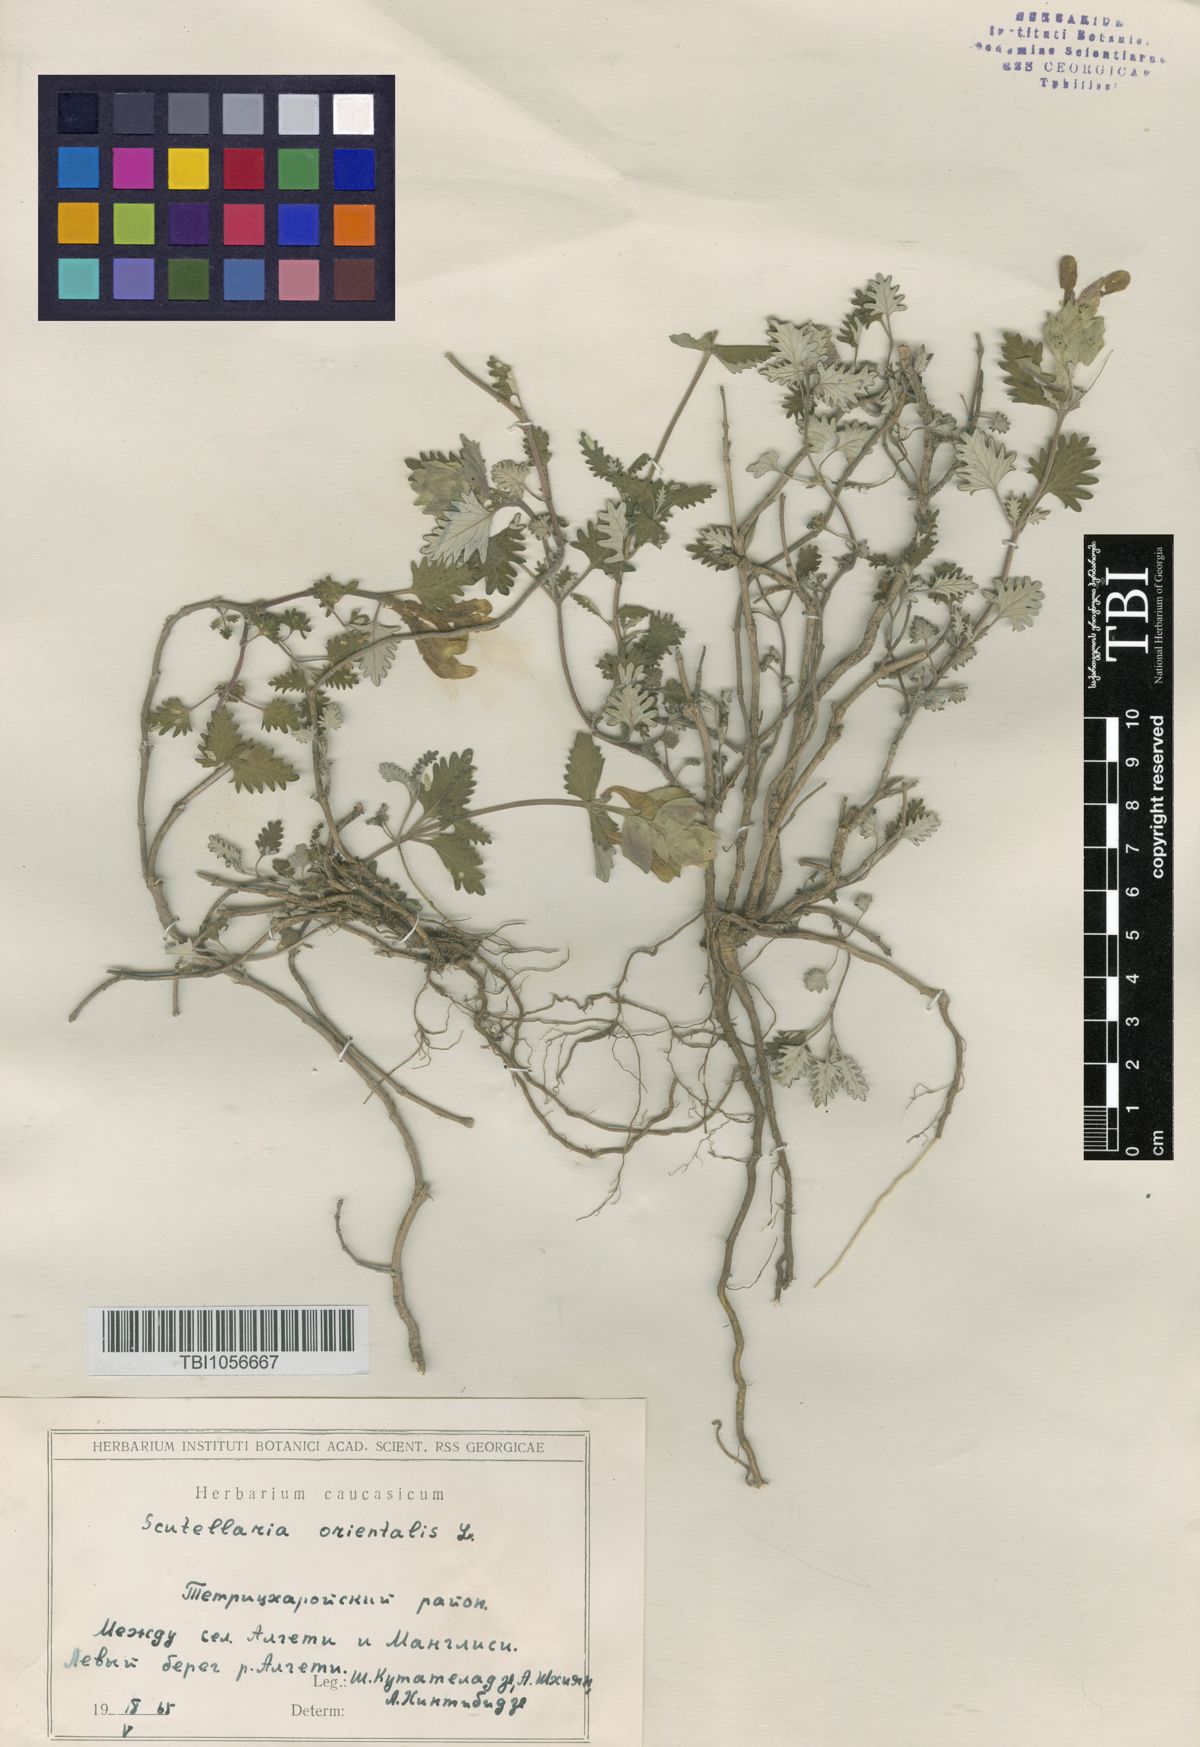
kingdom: Plantae
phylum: Tracheophyta
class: Magnoliopsida
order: Lamiales
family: Lamiaceae
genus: Scutellaria
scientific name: Scutellaria orientalis
